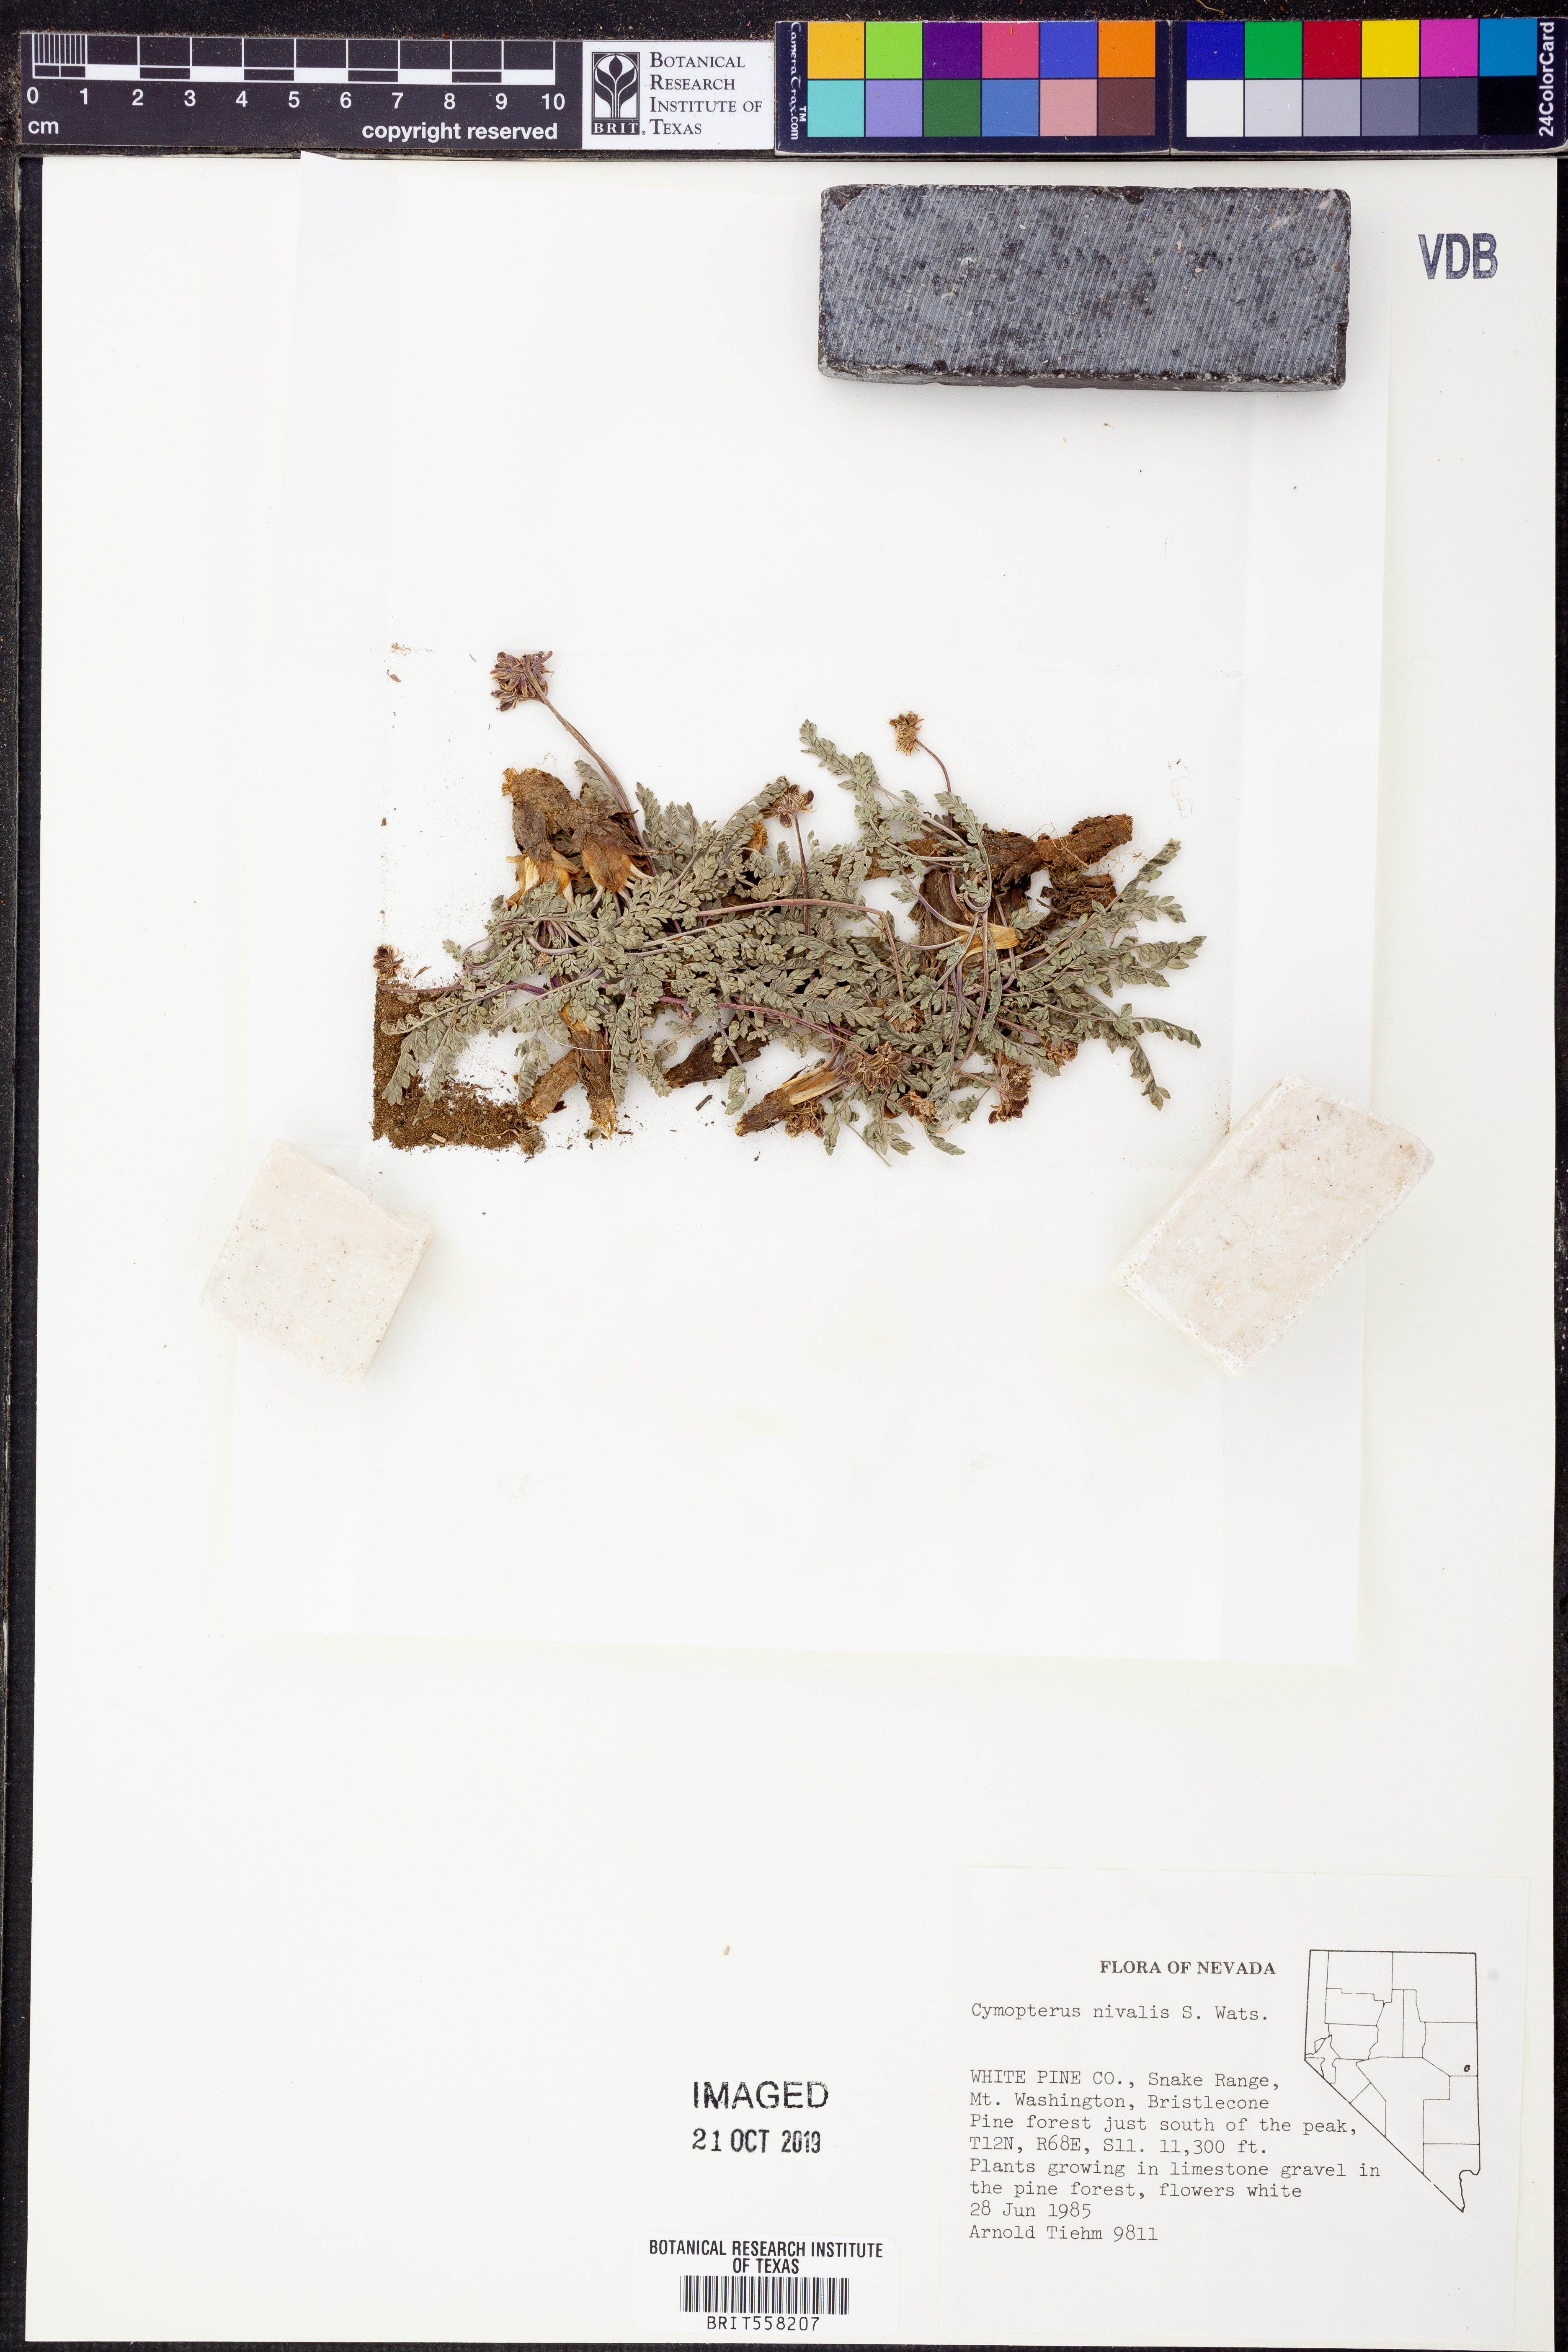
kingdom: Plantae
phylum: Tracheophyta
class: Magnoliopsida
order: Apiales
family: Apiaceae
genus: Pseudocymopterus
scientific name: Pseudocymopterus nivalis
